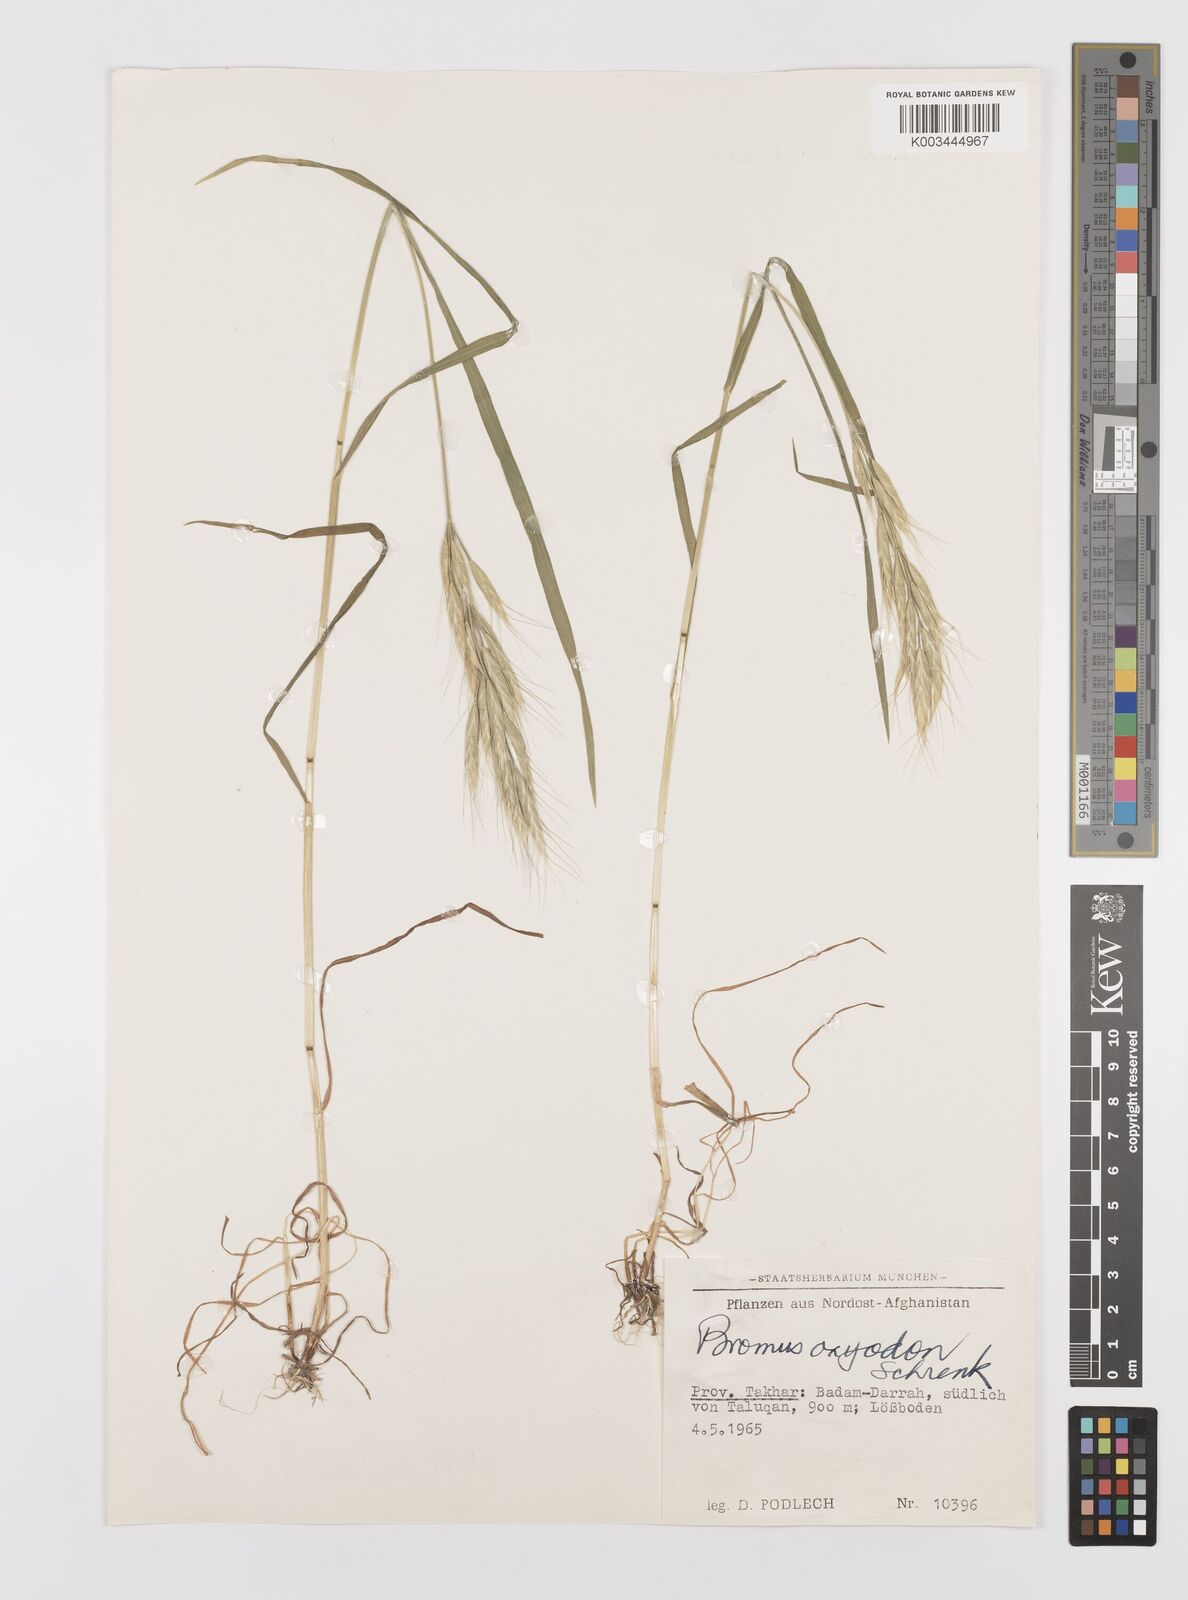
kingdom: Plantae
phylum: Tracheophyta
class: Liliopsida
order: Poales
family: Poaceae
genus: Bromus
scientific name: Bromus lanceolatus
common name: Mediterranean brome
